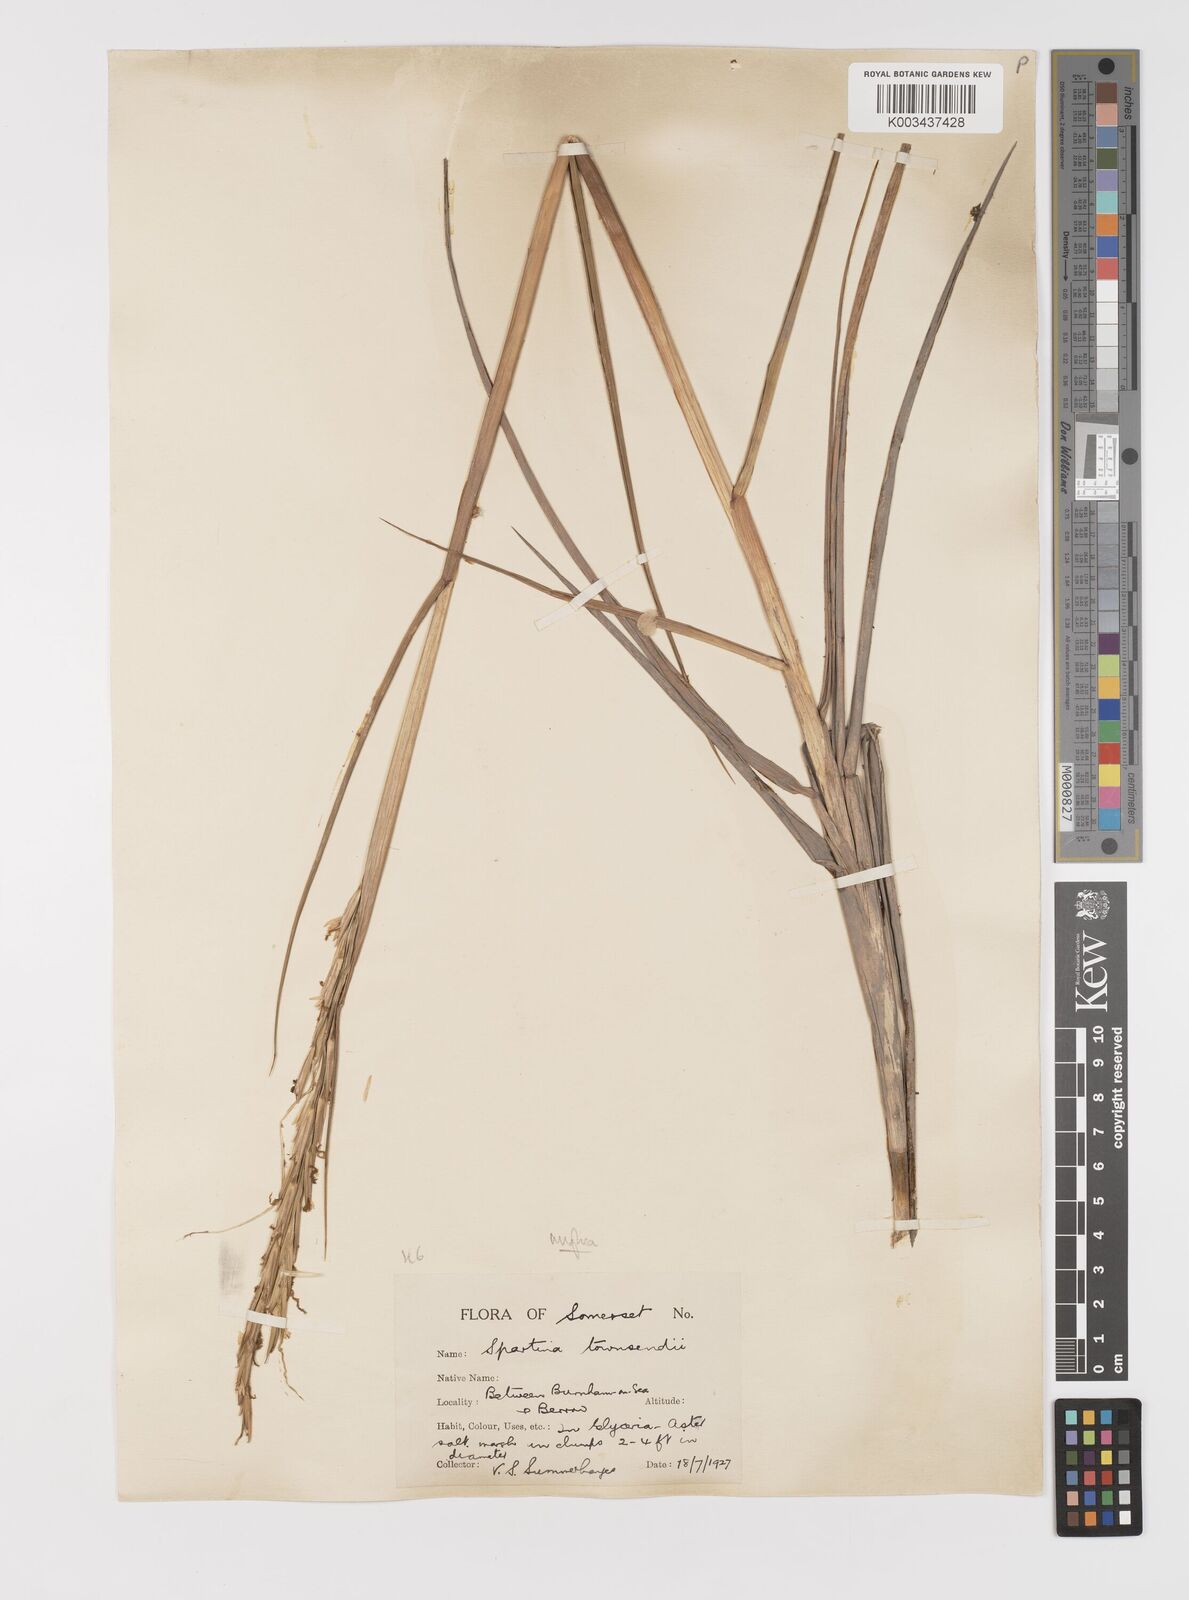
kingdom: Plantae
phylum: Tracheophyta
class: Liliopsida
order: Poales
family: Poaceae
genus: Sporobolus
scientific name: Sporobolus anglicus
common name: English cordgrass
